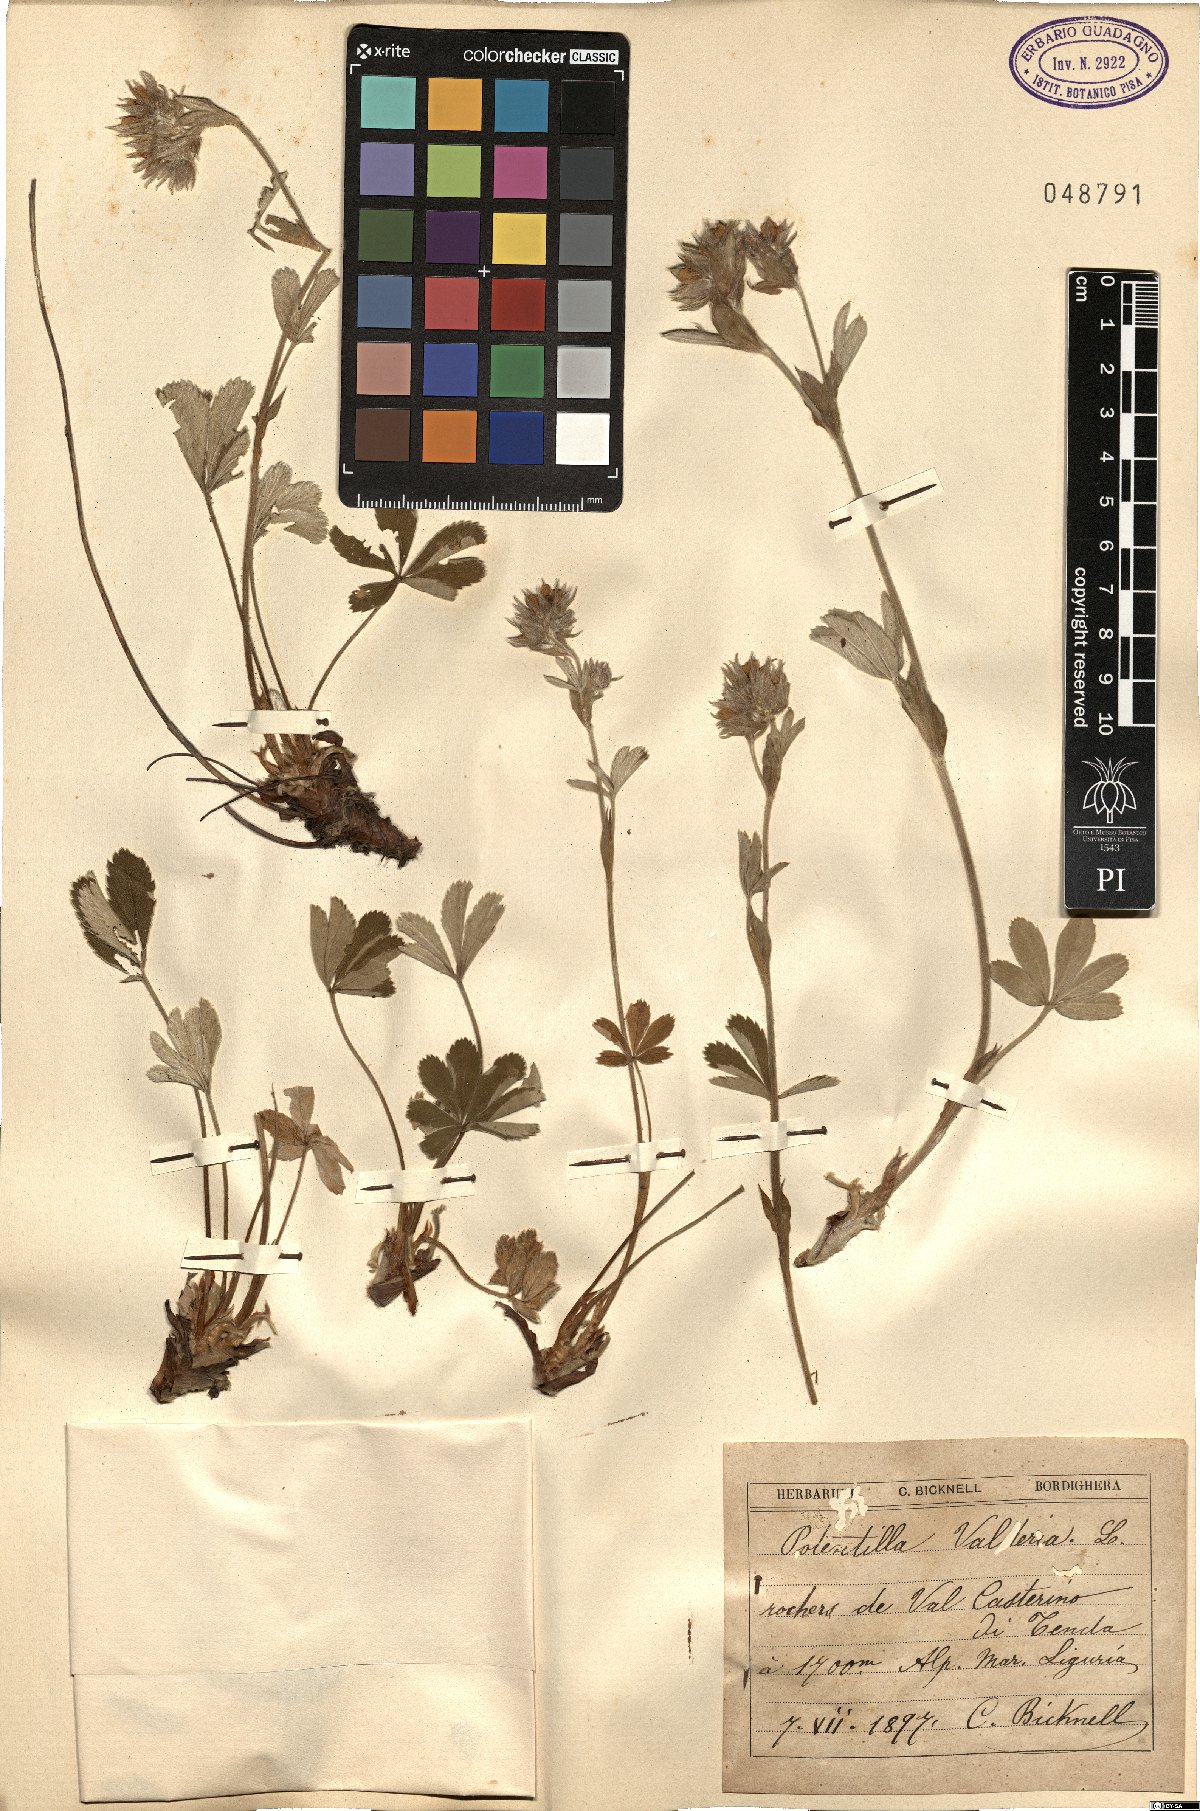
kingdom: Plantae
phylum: Tracheophyta
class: Magnoliopsida
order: Rosales
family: Rosaceae
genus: Potentilla
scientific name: Potentilla valderia
